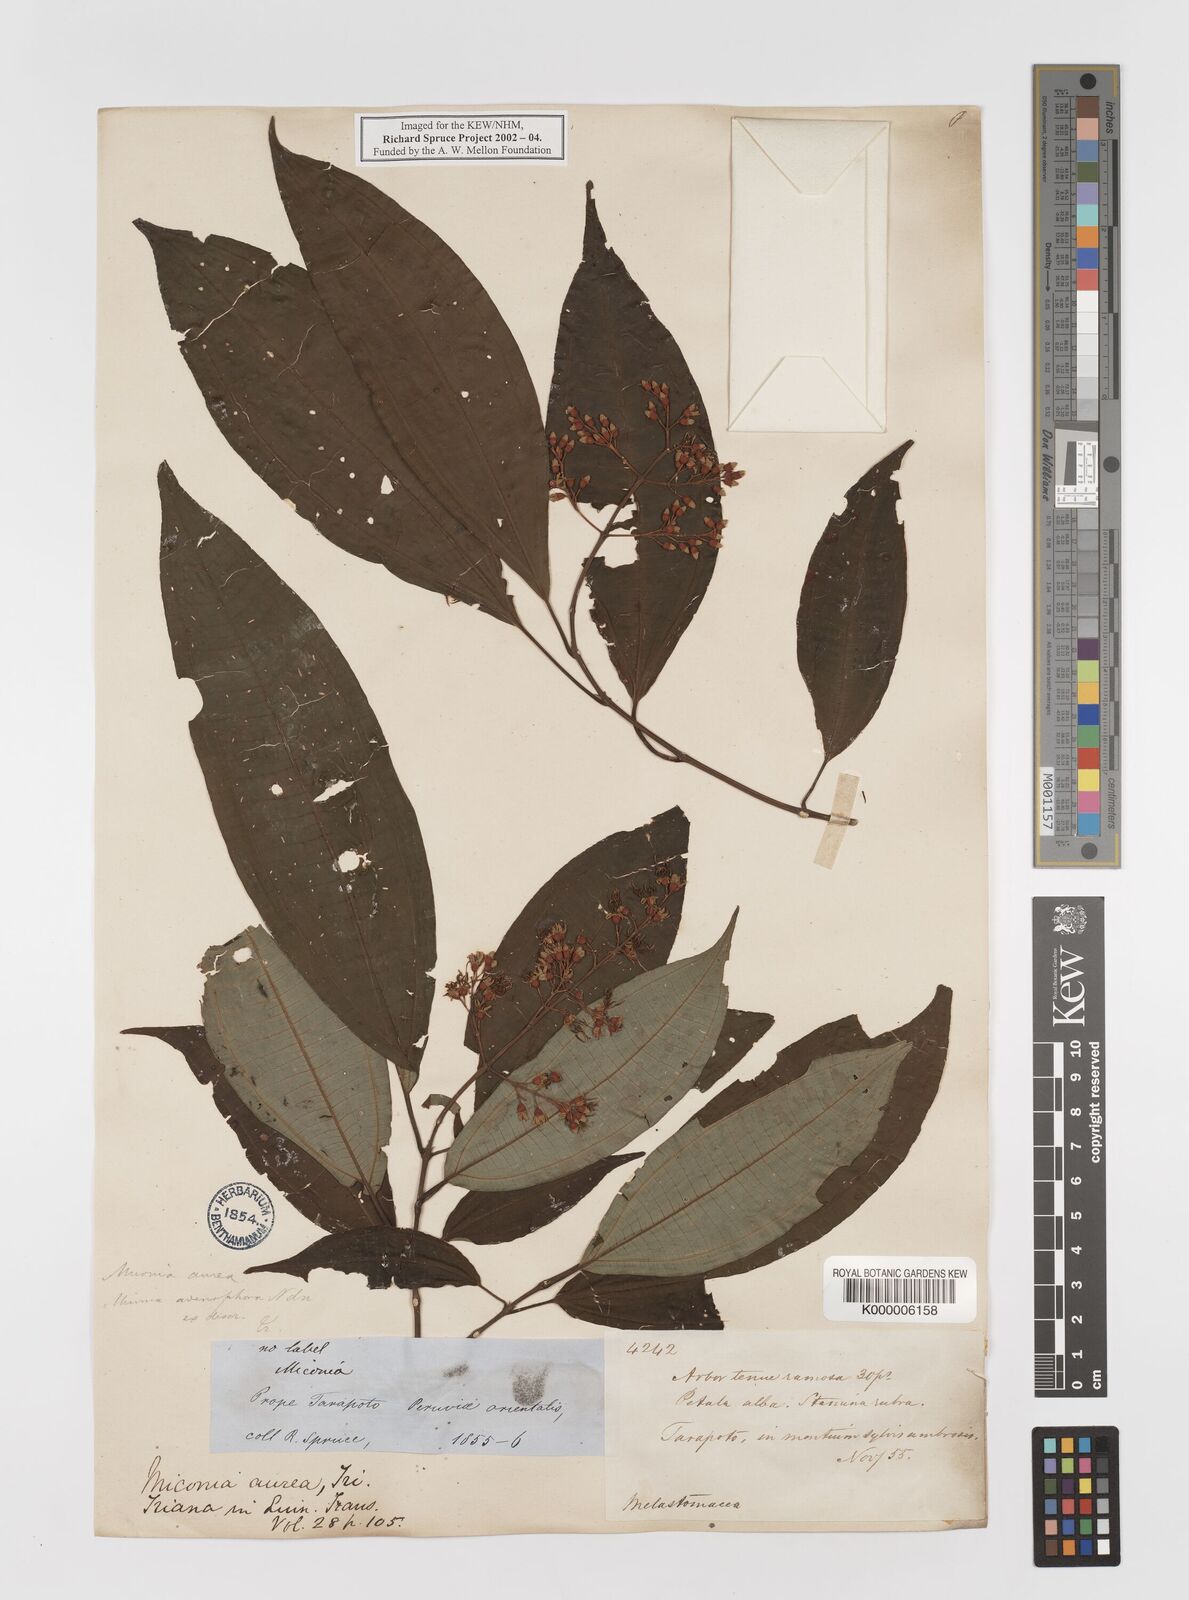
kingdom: Plantae
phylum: Tracheophyta
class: Magnoliopsida
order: Myrtales
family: Melastomataceae
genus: Miconia
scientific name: Miconia aurea
